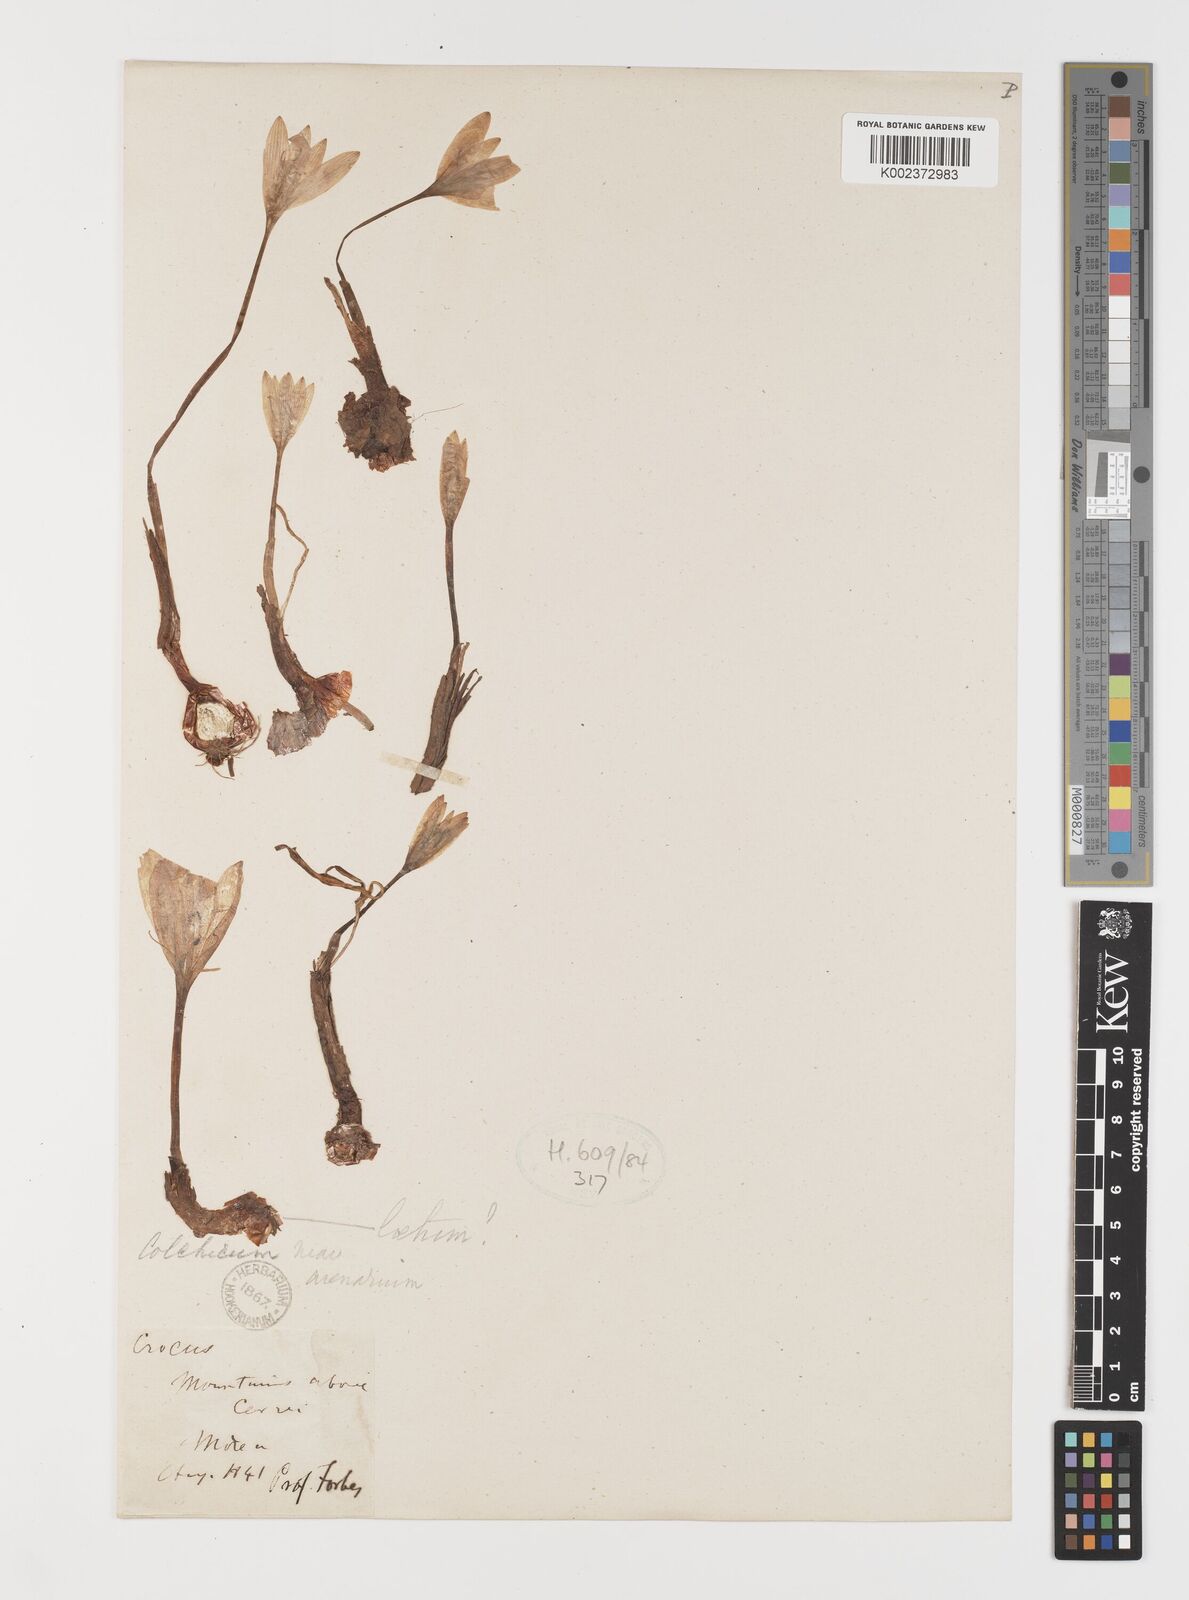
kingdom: Plantae
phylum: Tracheophyta
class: Liliopsida
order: Liliales
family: Colchicaceae
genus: Colchicum
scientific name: Colchicum arenarium
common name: Sand saffron
